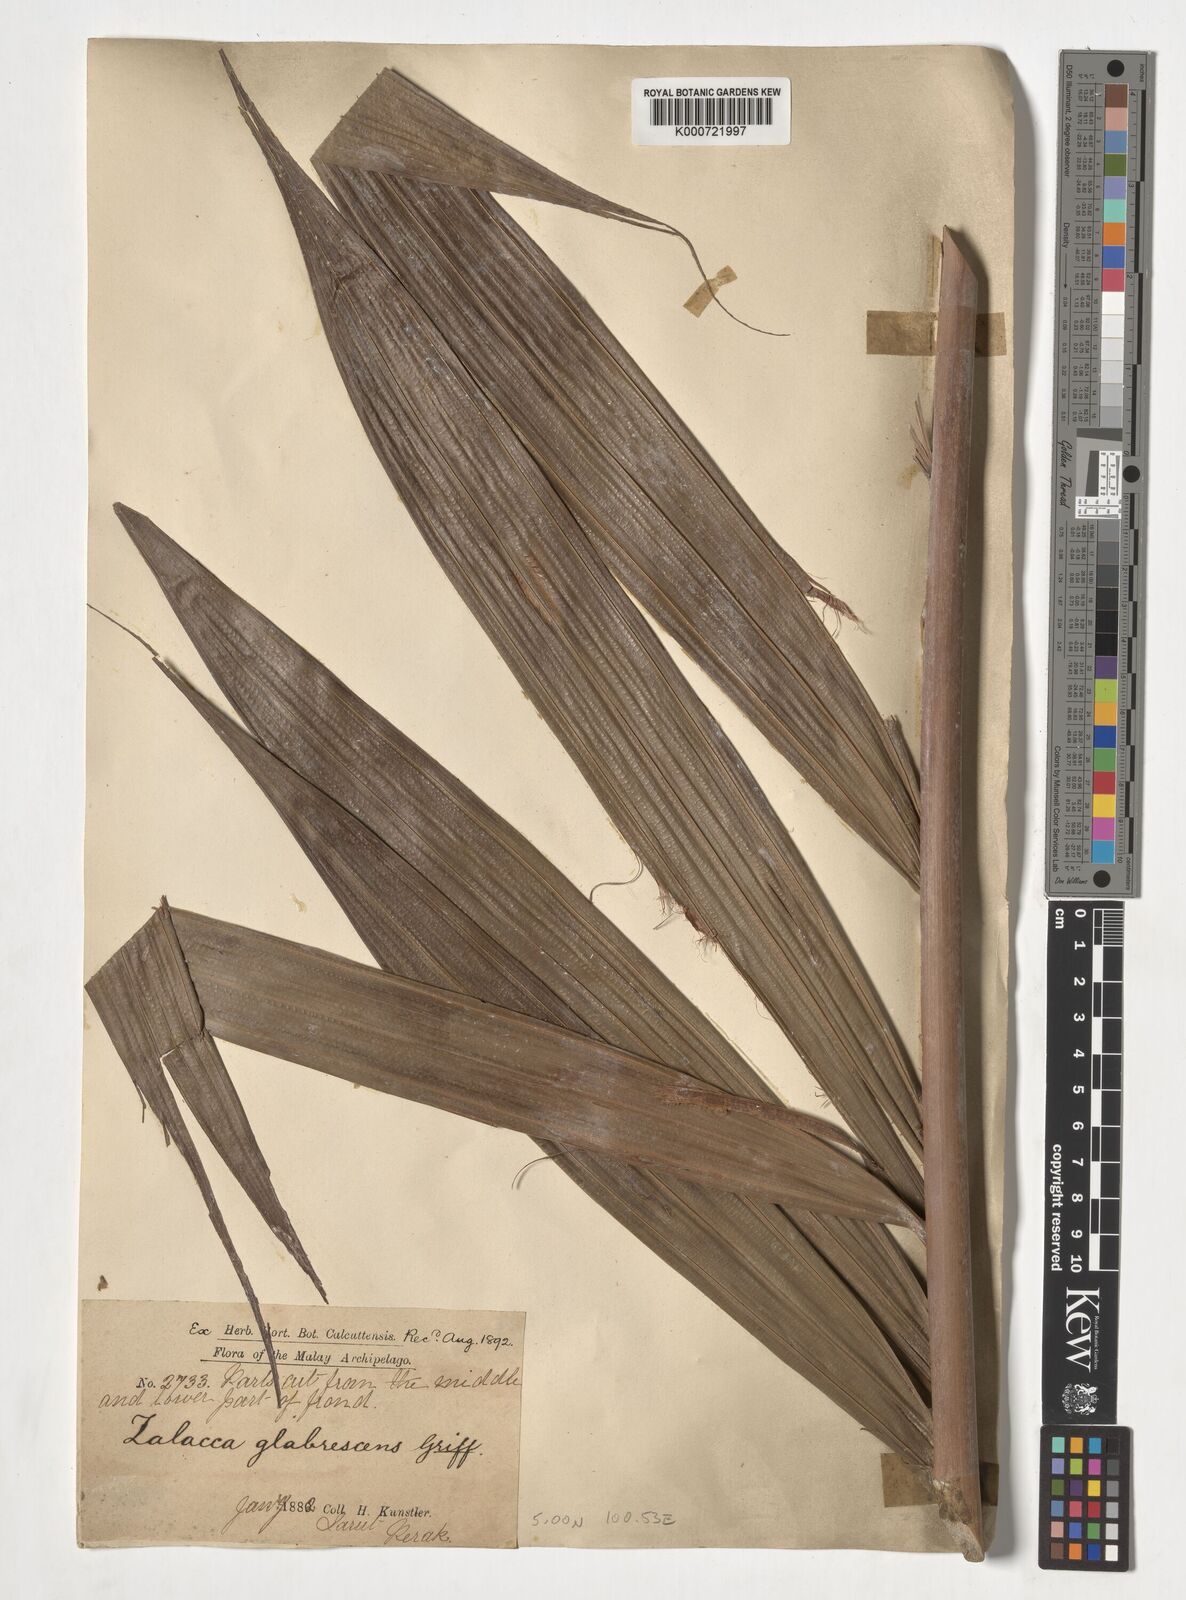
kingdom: Plantae
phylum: Tracheophyta
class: Liliopsida
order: Arecales
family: Arecaceae
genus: Salacca
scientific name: Salacca glabrescens
